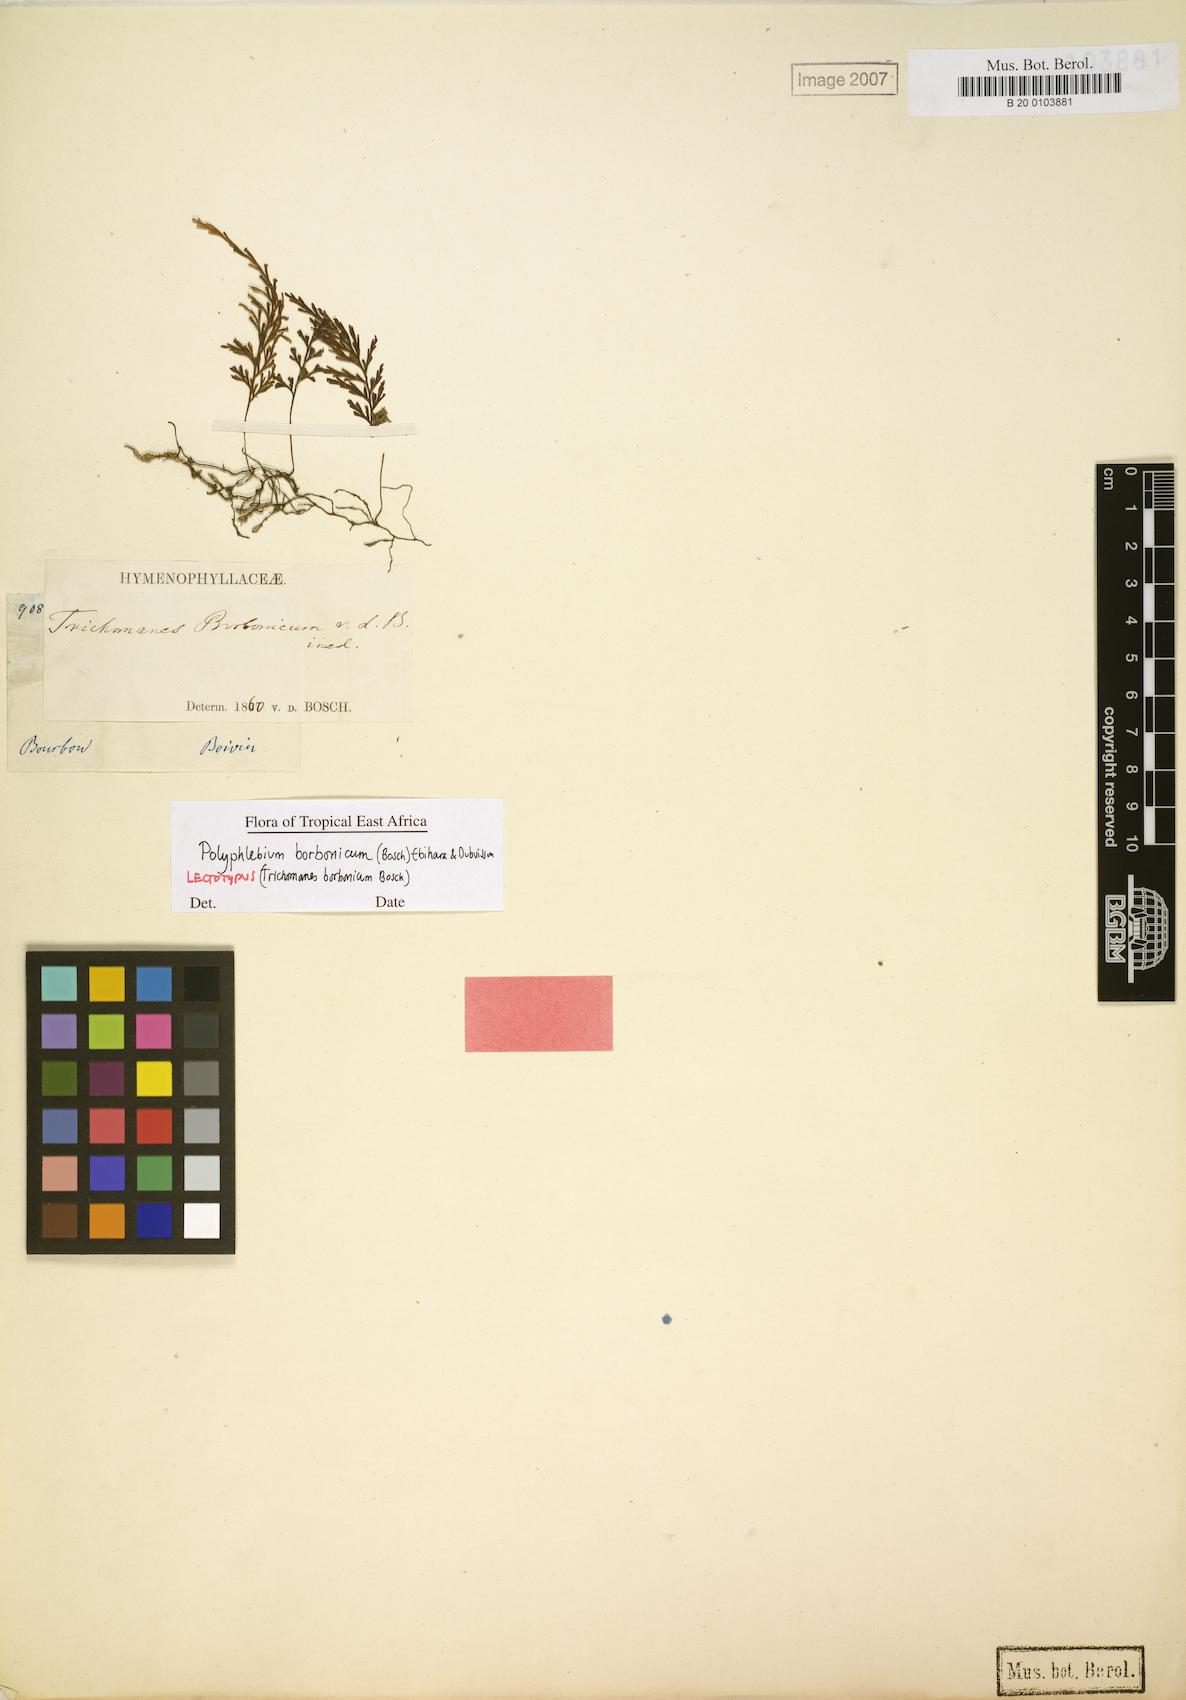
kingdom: Plantae
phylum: Tracheophyta
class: Polypodiopsida
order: Hymenophyllales
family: Hymenophyllaceae
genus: Polyphlebium
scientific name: Polyphlebium diaphanum
